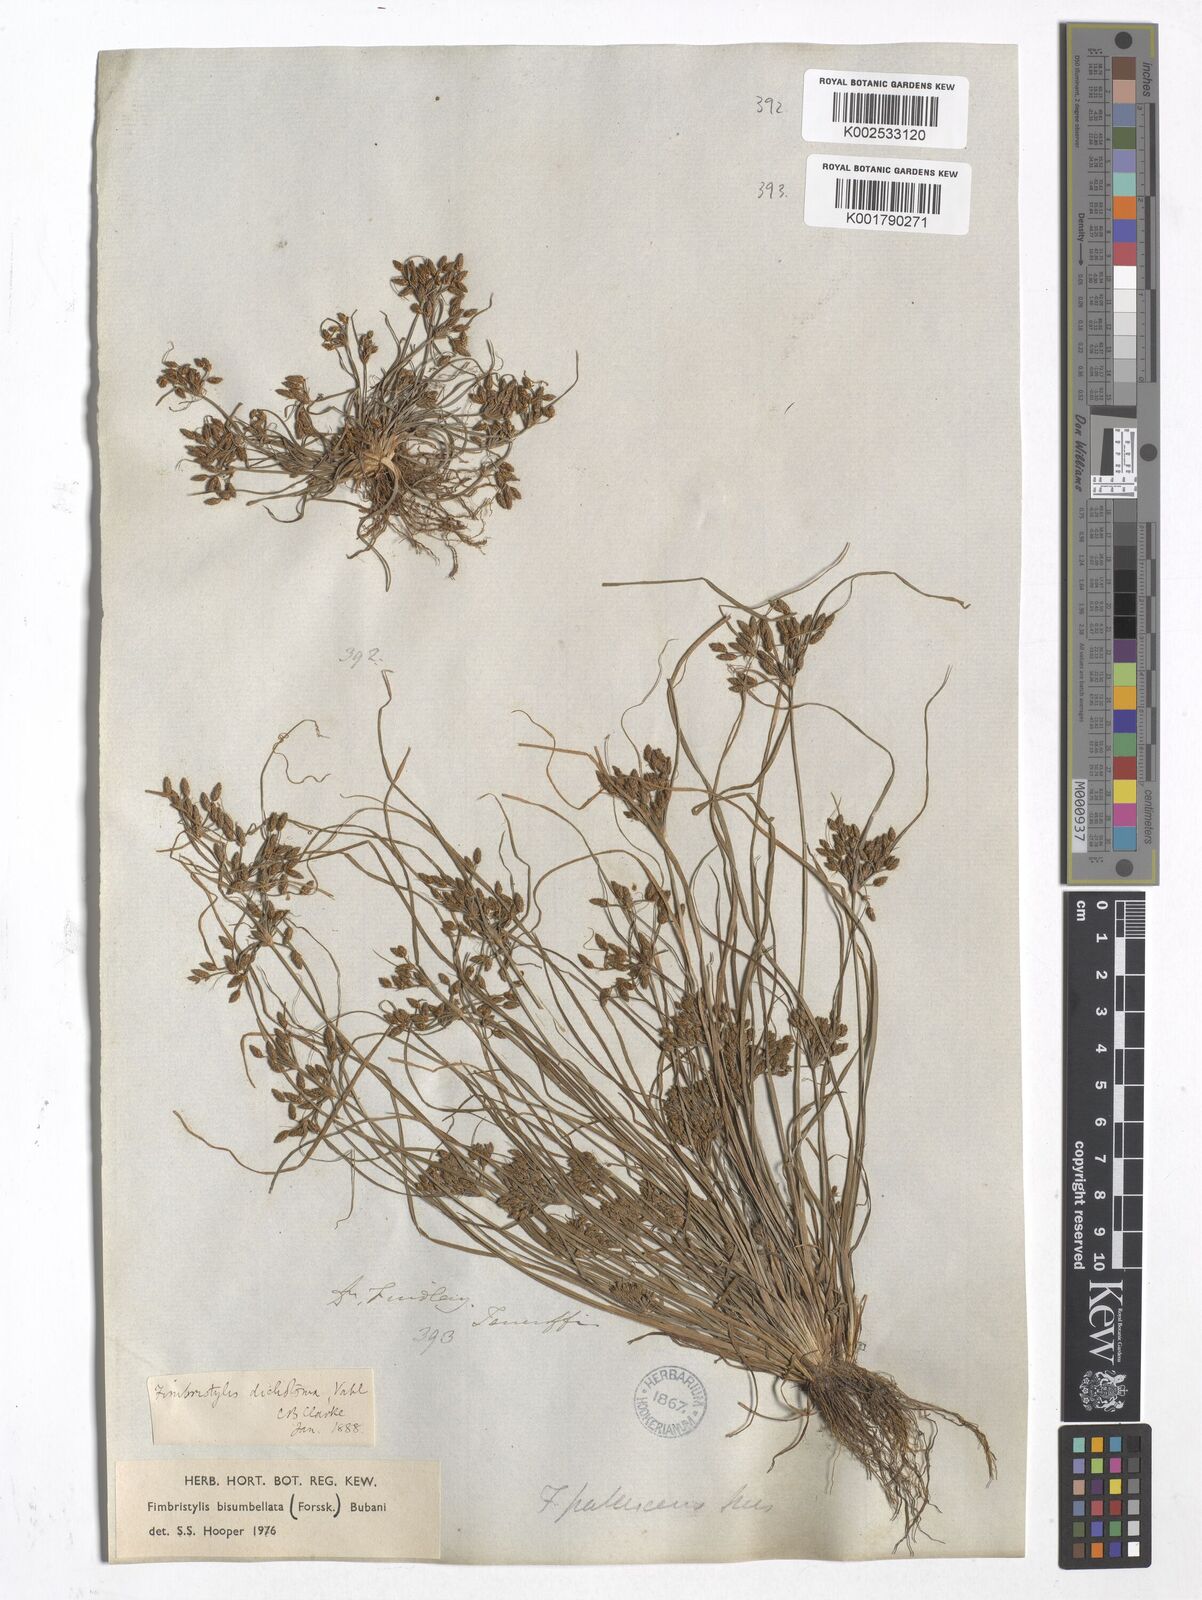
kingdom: Plantae
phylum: Tracheophyta
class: Liliopsida
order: Poales
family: Cyperaceae
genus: Fimbristylis
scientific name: Fimbristylis bisumbellata
